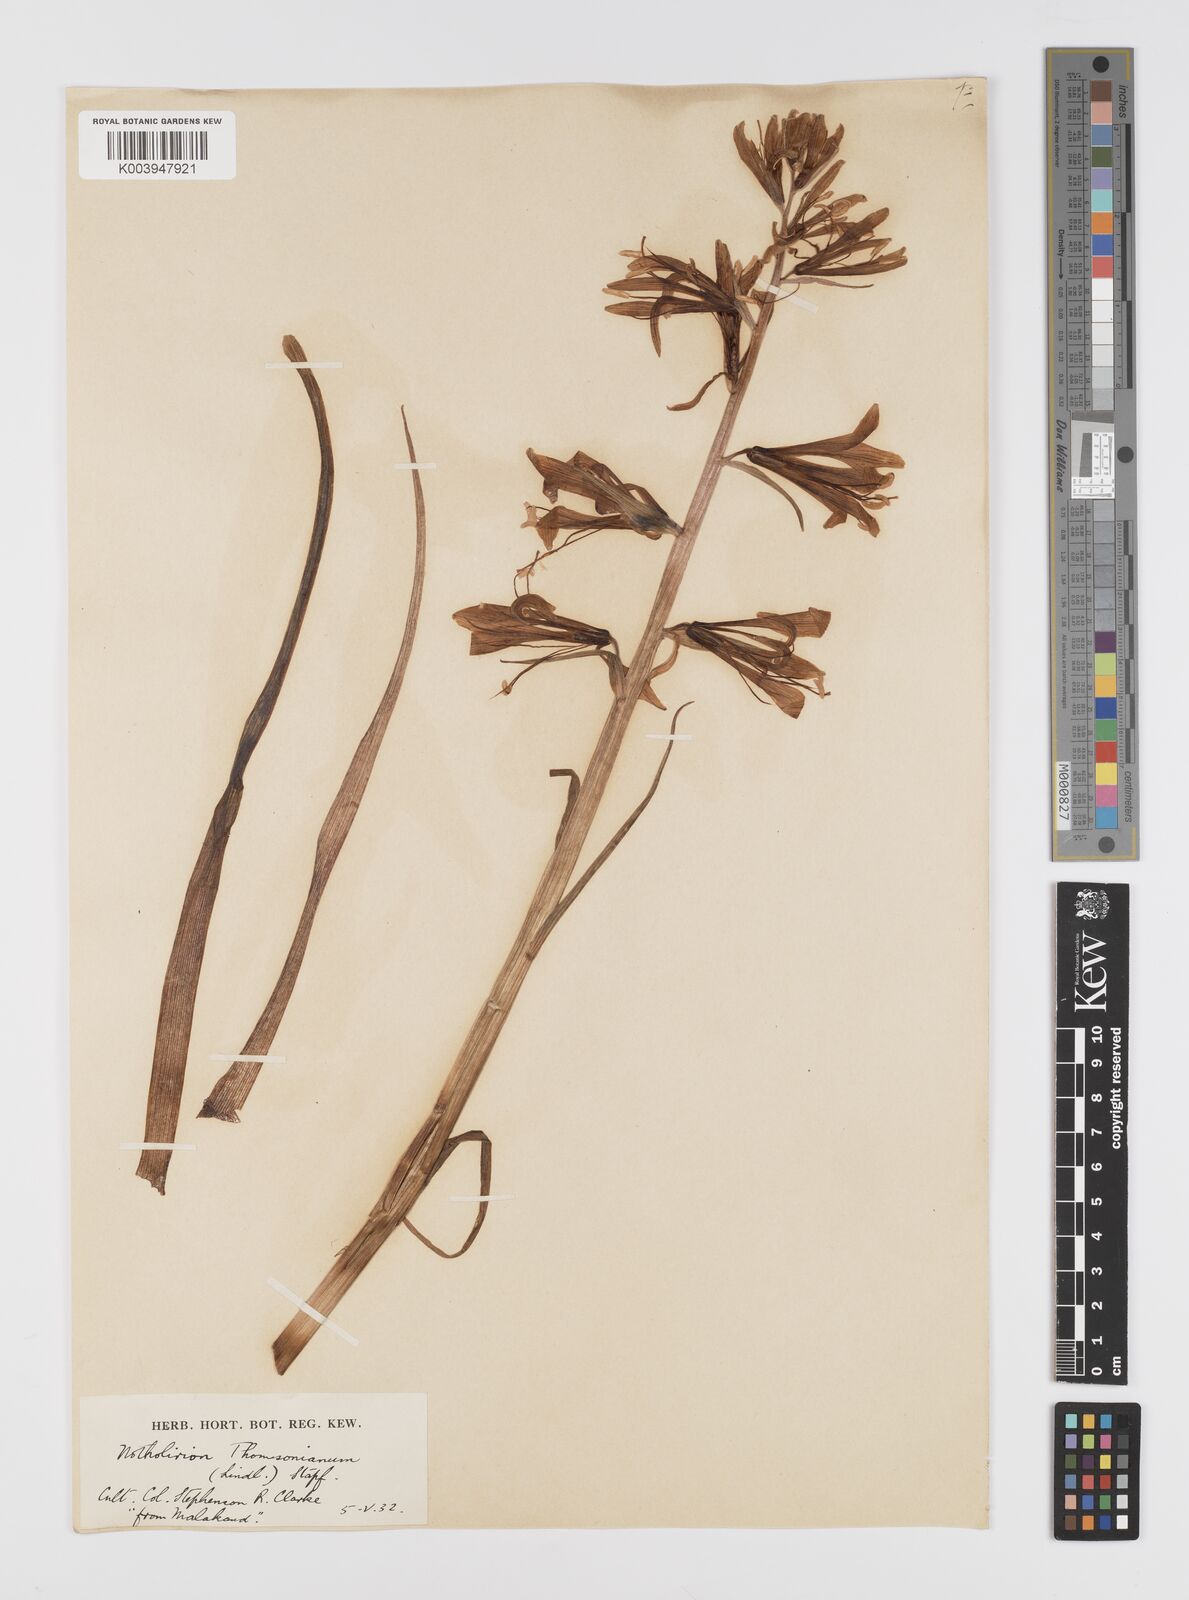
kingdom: Plantae
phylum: Tracheophyta
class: Liliopsida
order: Liliales
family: Liliaceae
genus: Notholirion
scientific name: Notholirion thomsonianum
